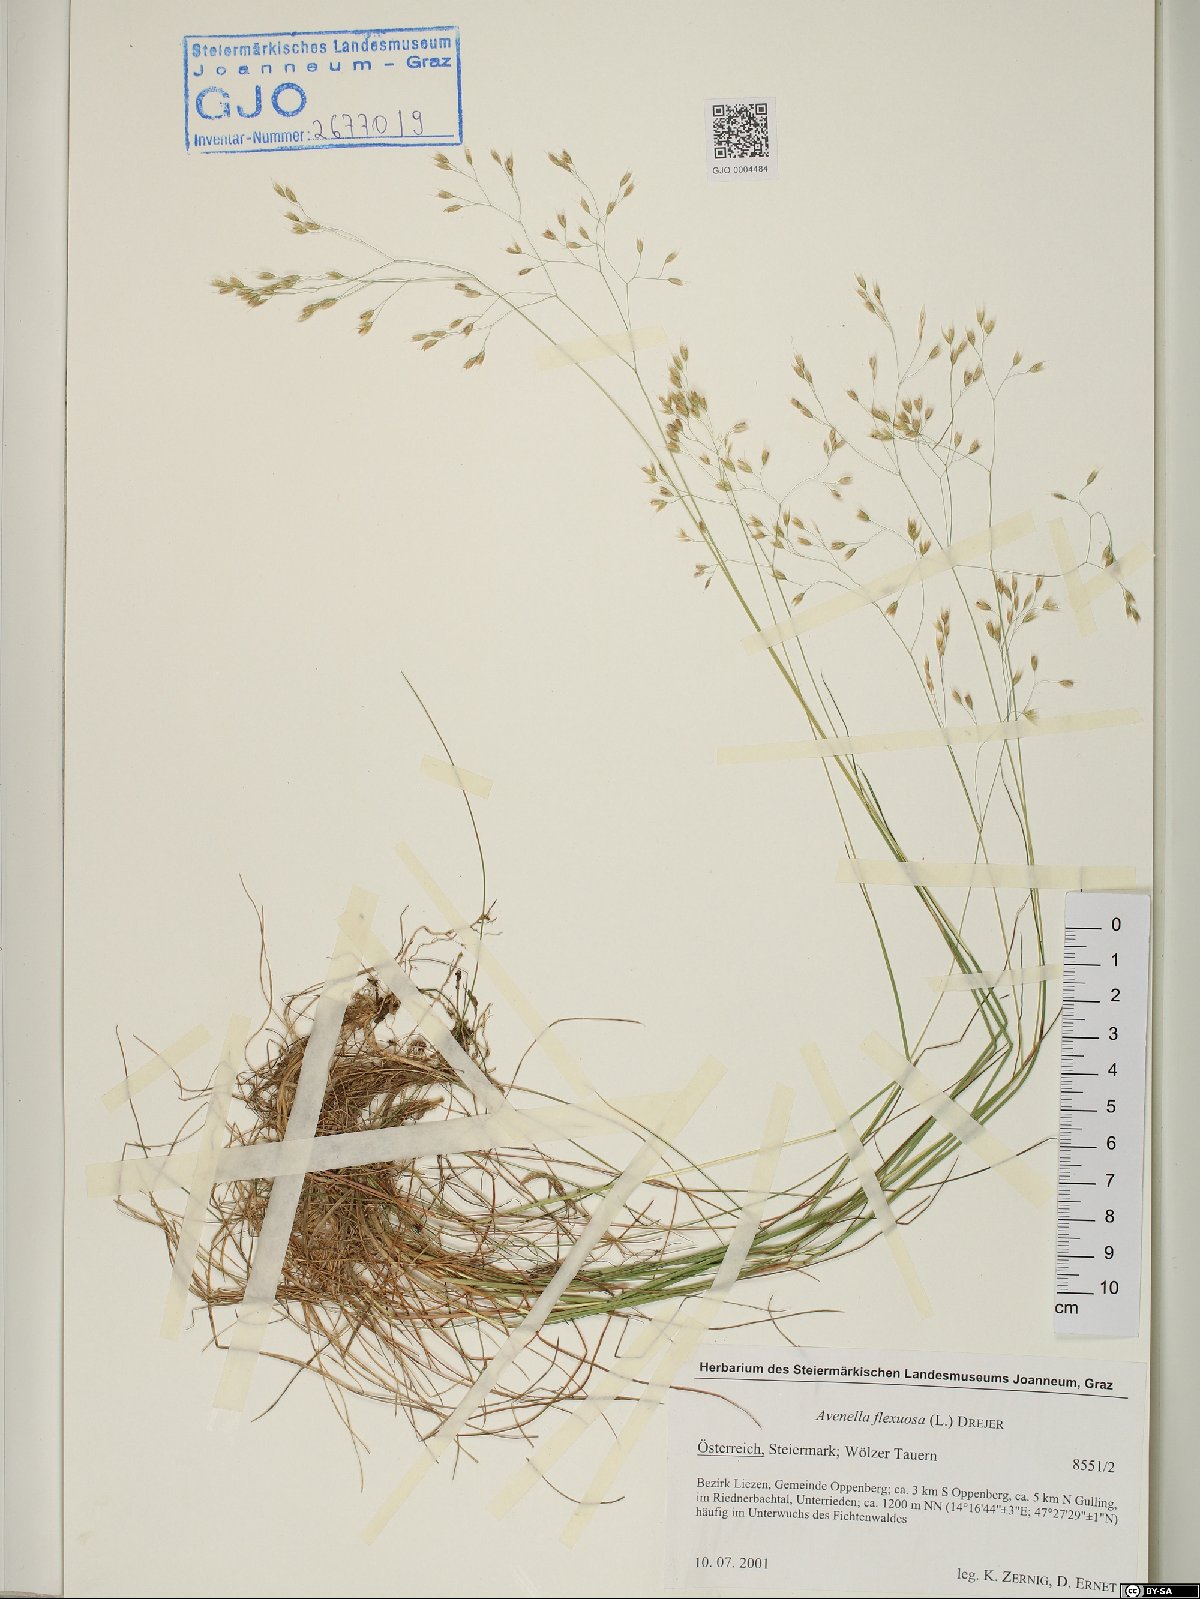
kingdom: Plantae
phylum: Tracheophyta
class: Liliopsida
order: Poales
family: Poaceae
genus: Avenella
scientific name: Avenella flexuosa
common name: Wavy hairgrass
